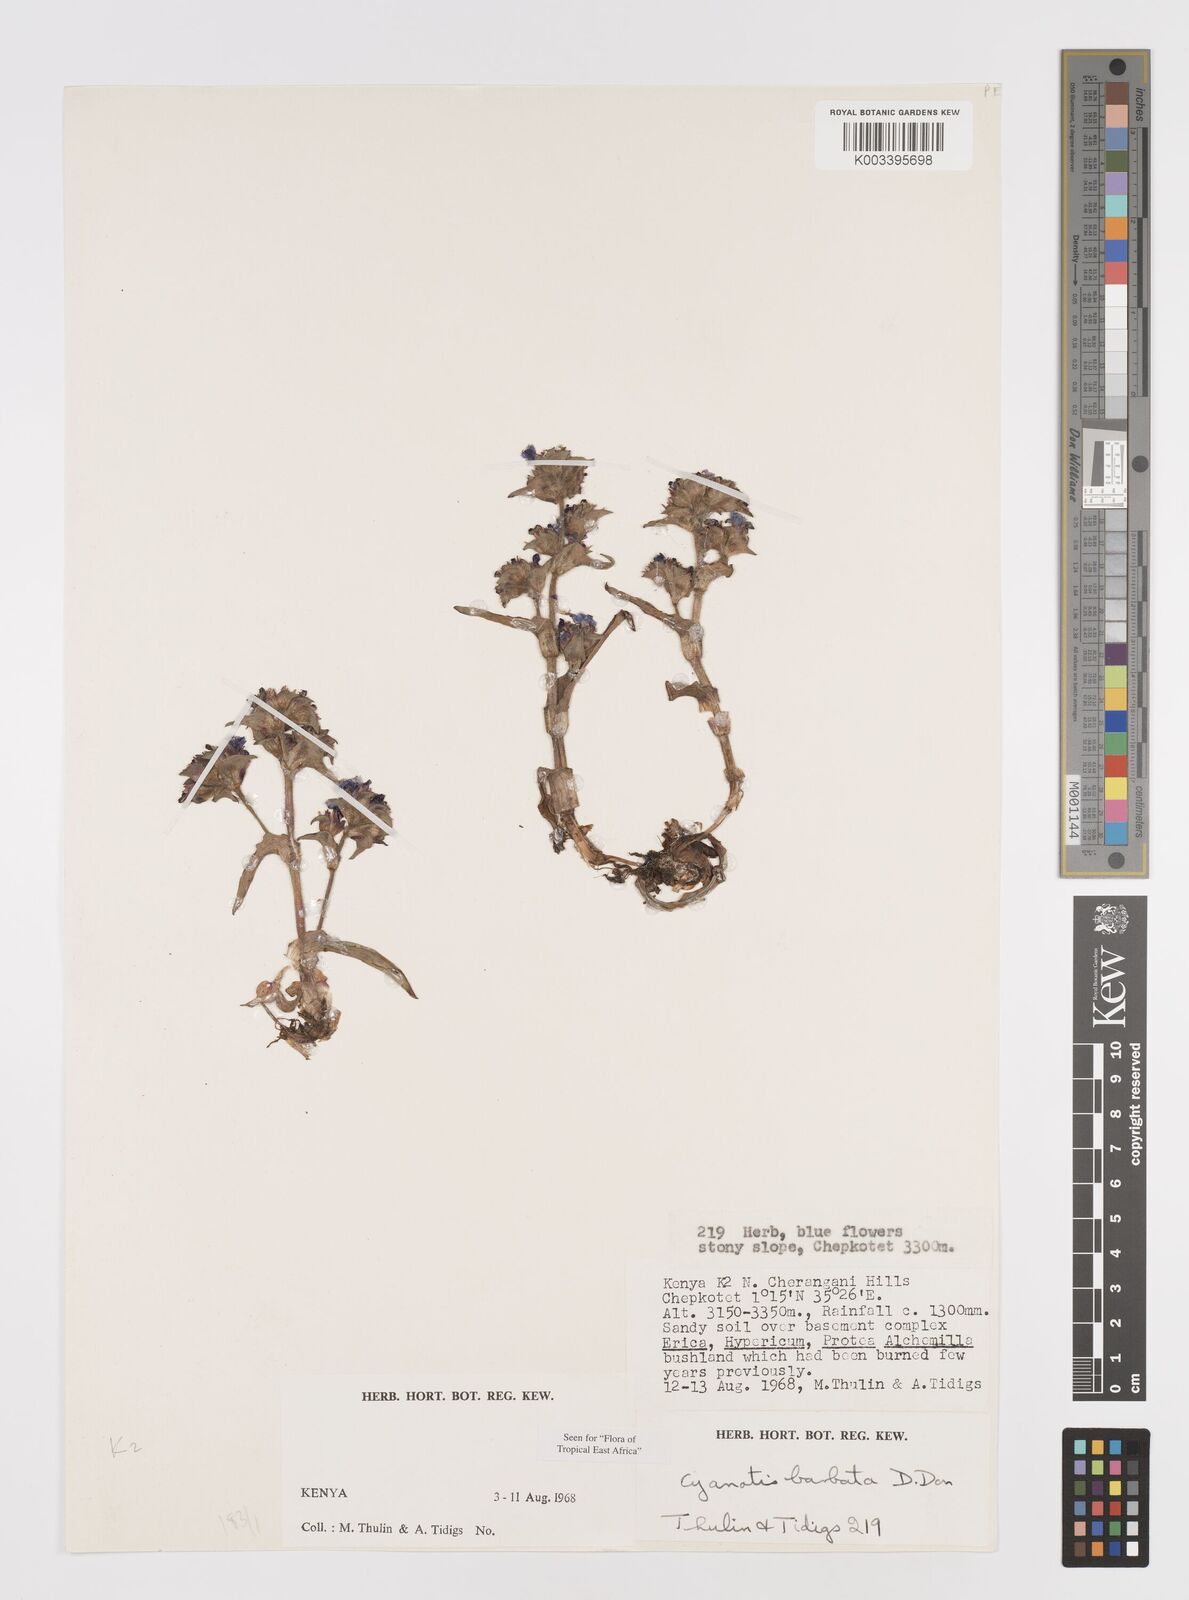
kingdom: Plantae
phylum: Tracheophyta
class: Liliopsida
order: Commelinales
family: Commelinaceae
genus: Cyanotis
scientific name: Cyanotis vaga
